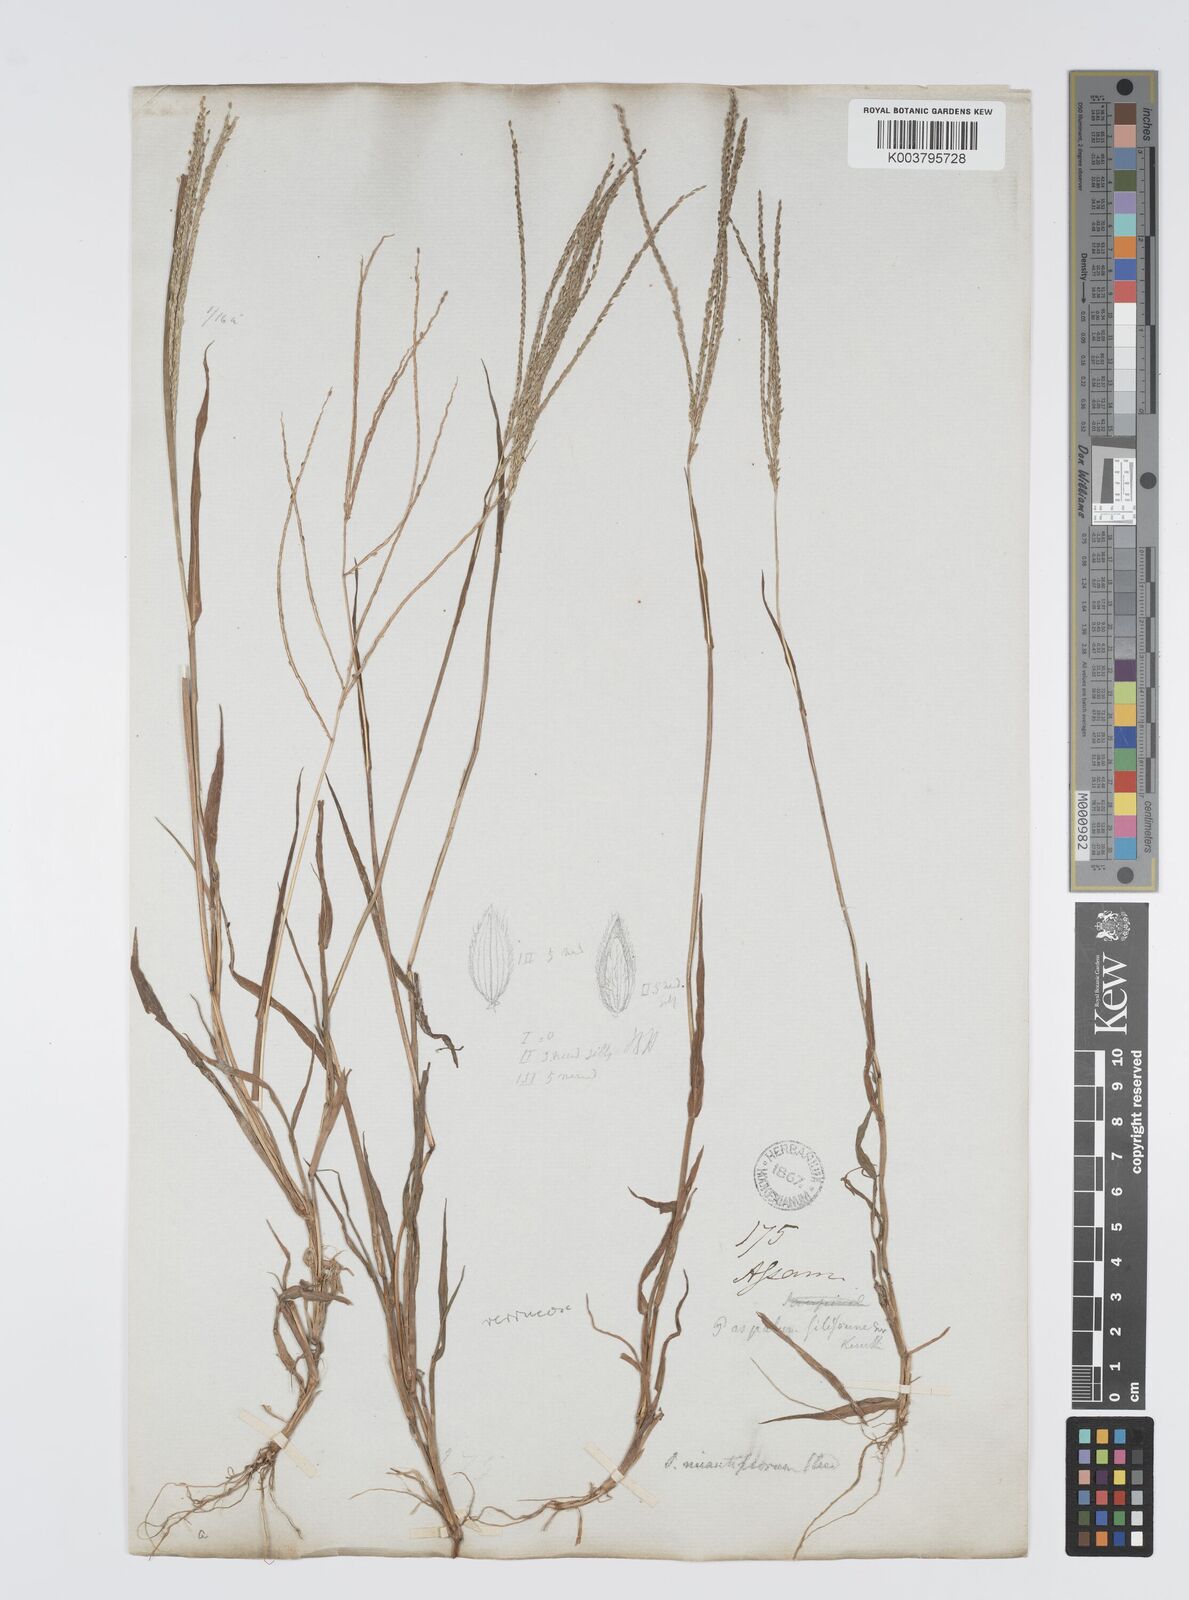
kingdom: Plantae
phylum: Tracheophyta
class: Liliopsida
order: Poales
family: Poaceae
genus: Digitaria
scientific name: Digitaria violascens
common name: Violet crabgrass
